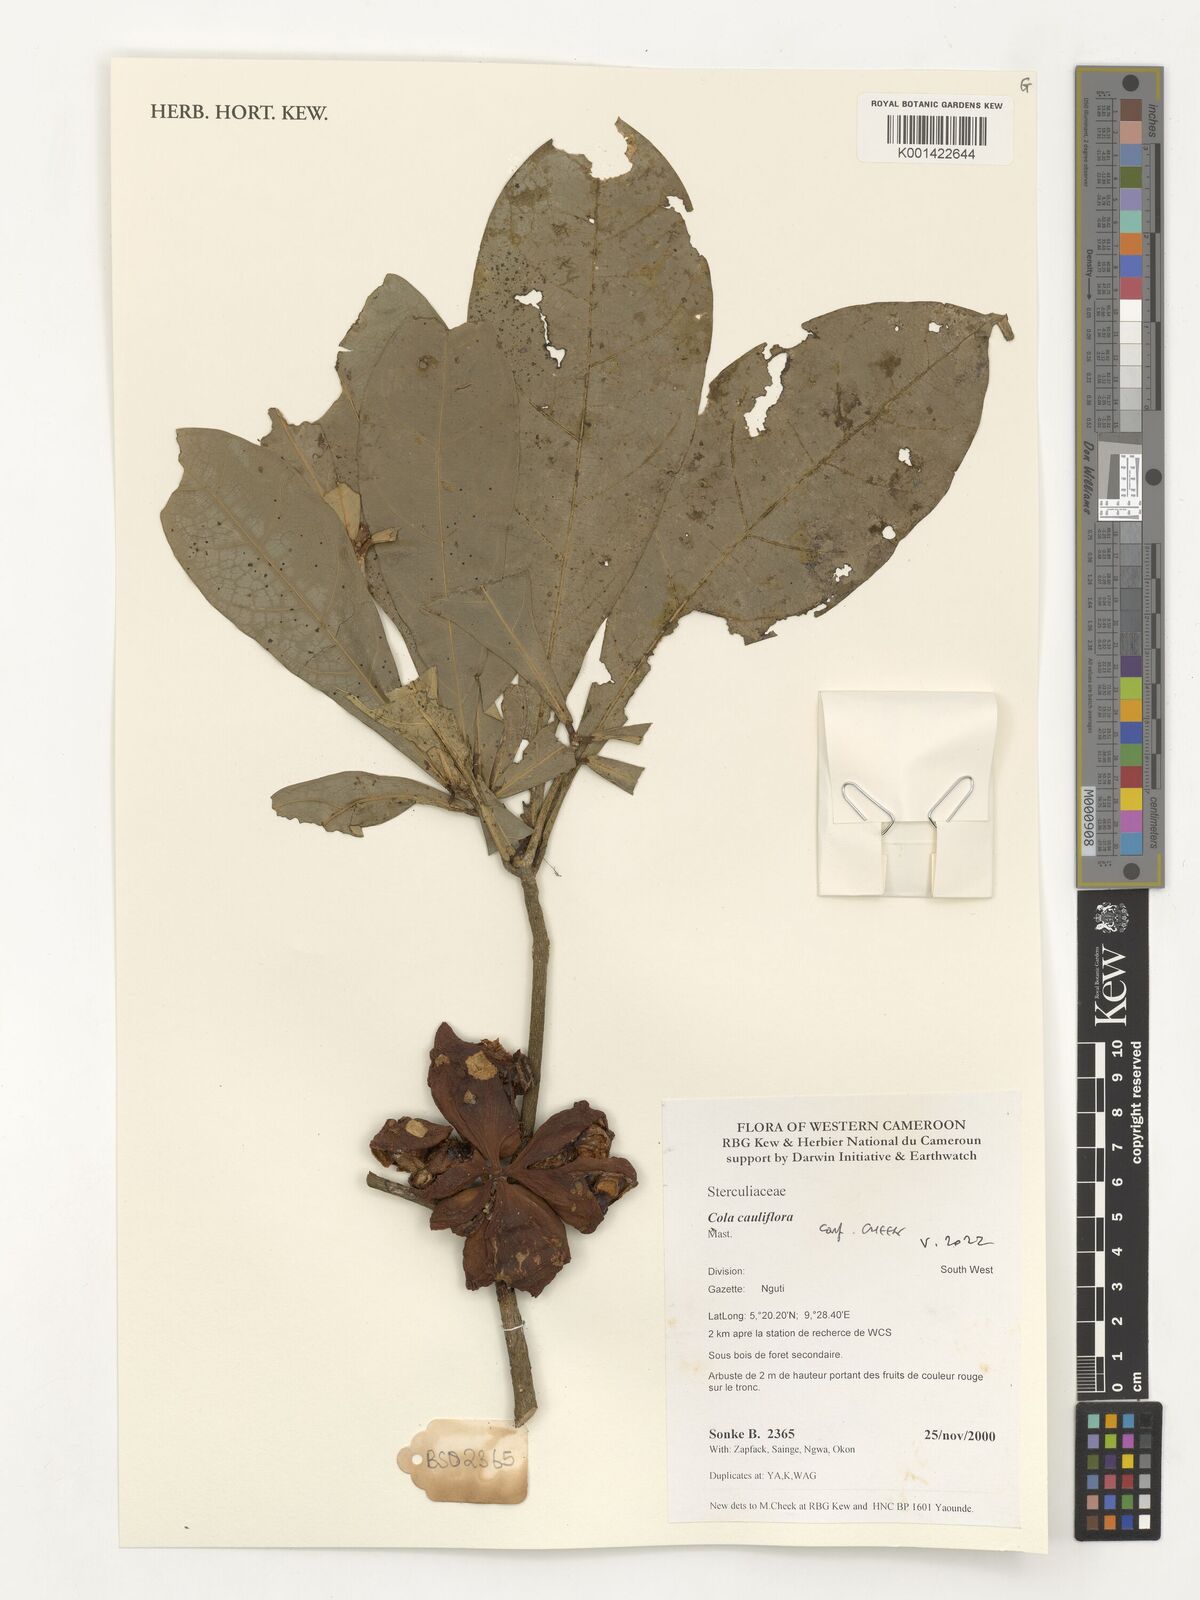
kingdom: Plantae
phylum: Tracheophyta
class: Magnoliopsida
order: Malvales
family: Malvaceae
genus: Cola
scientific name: Cola cauliflora
